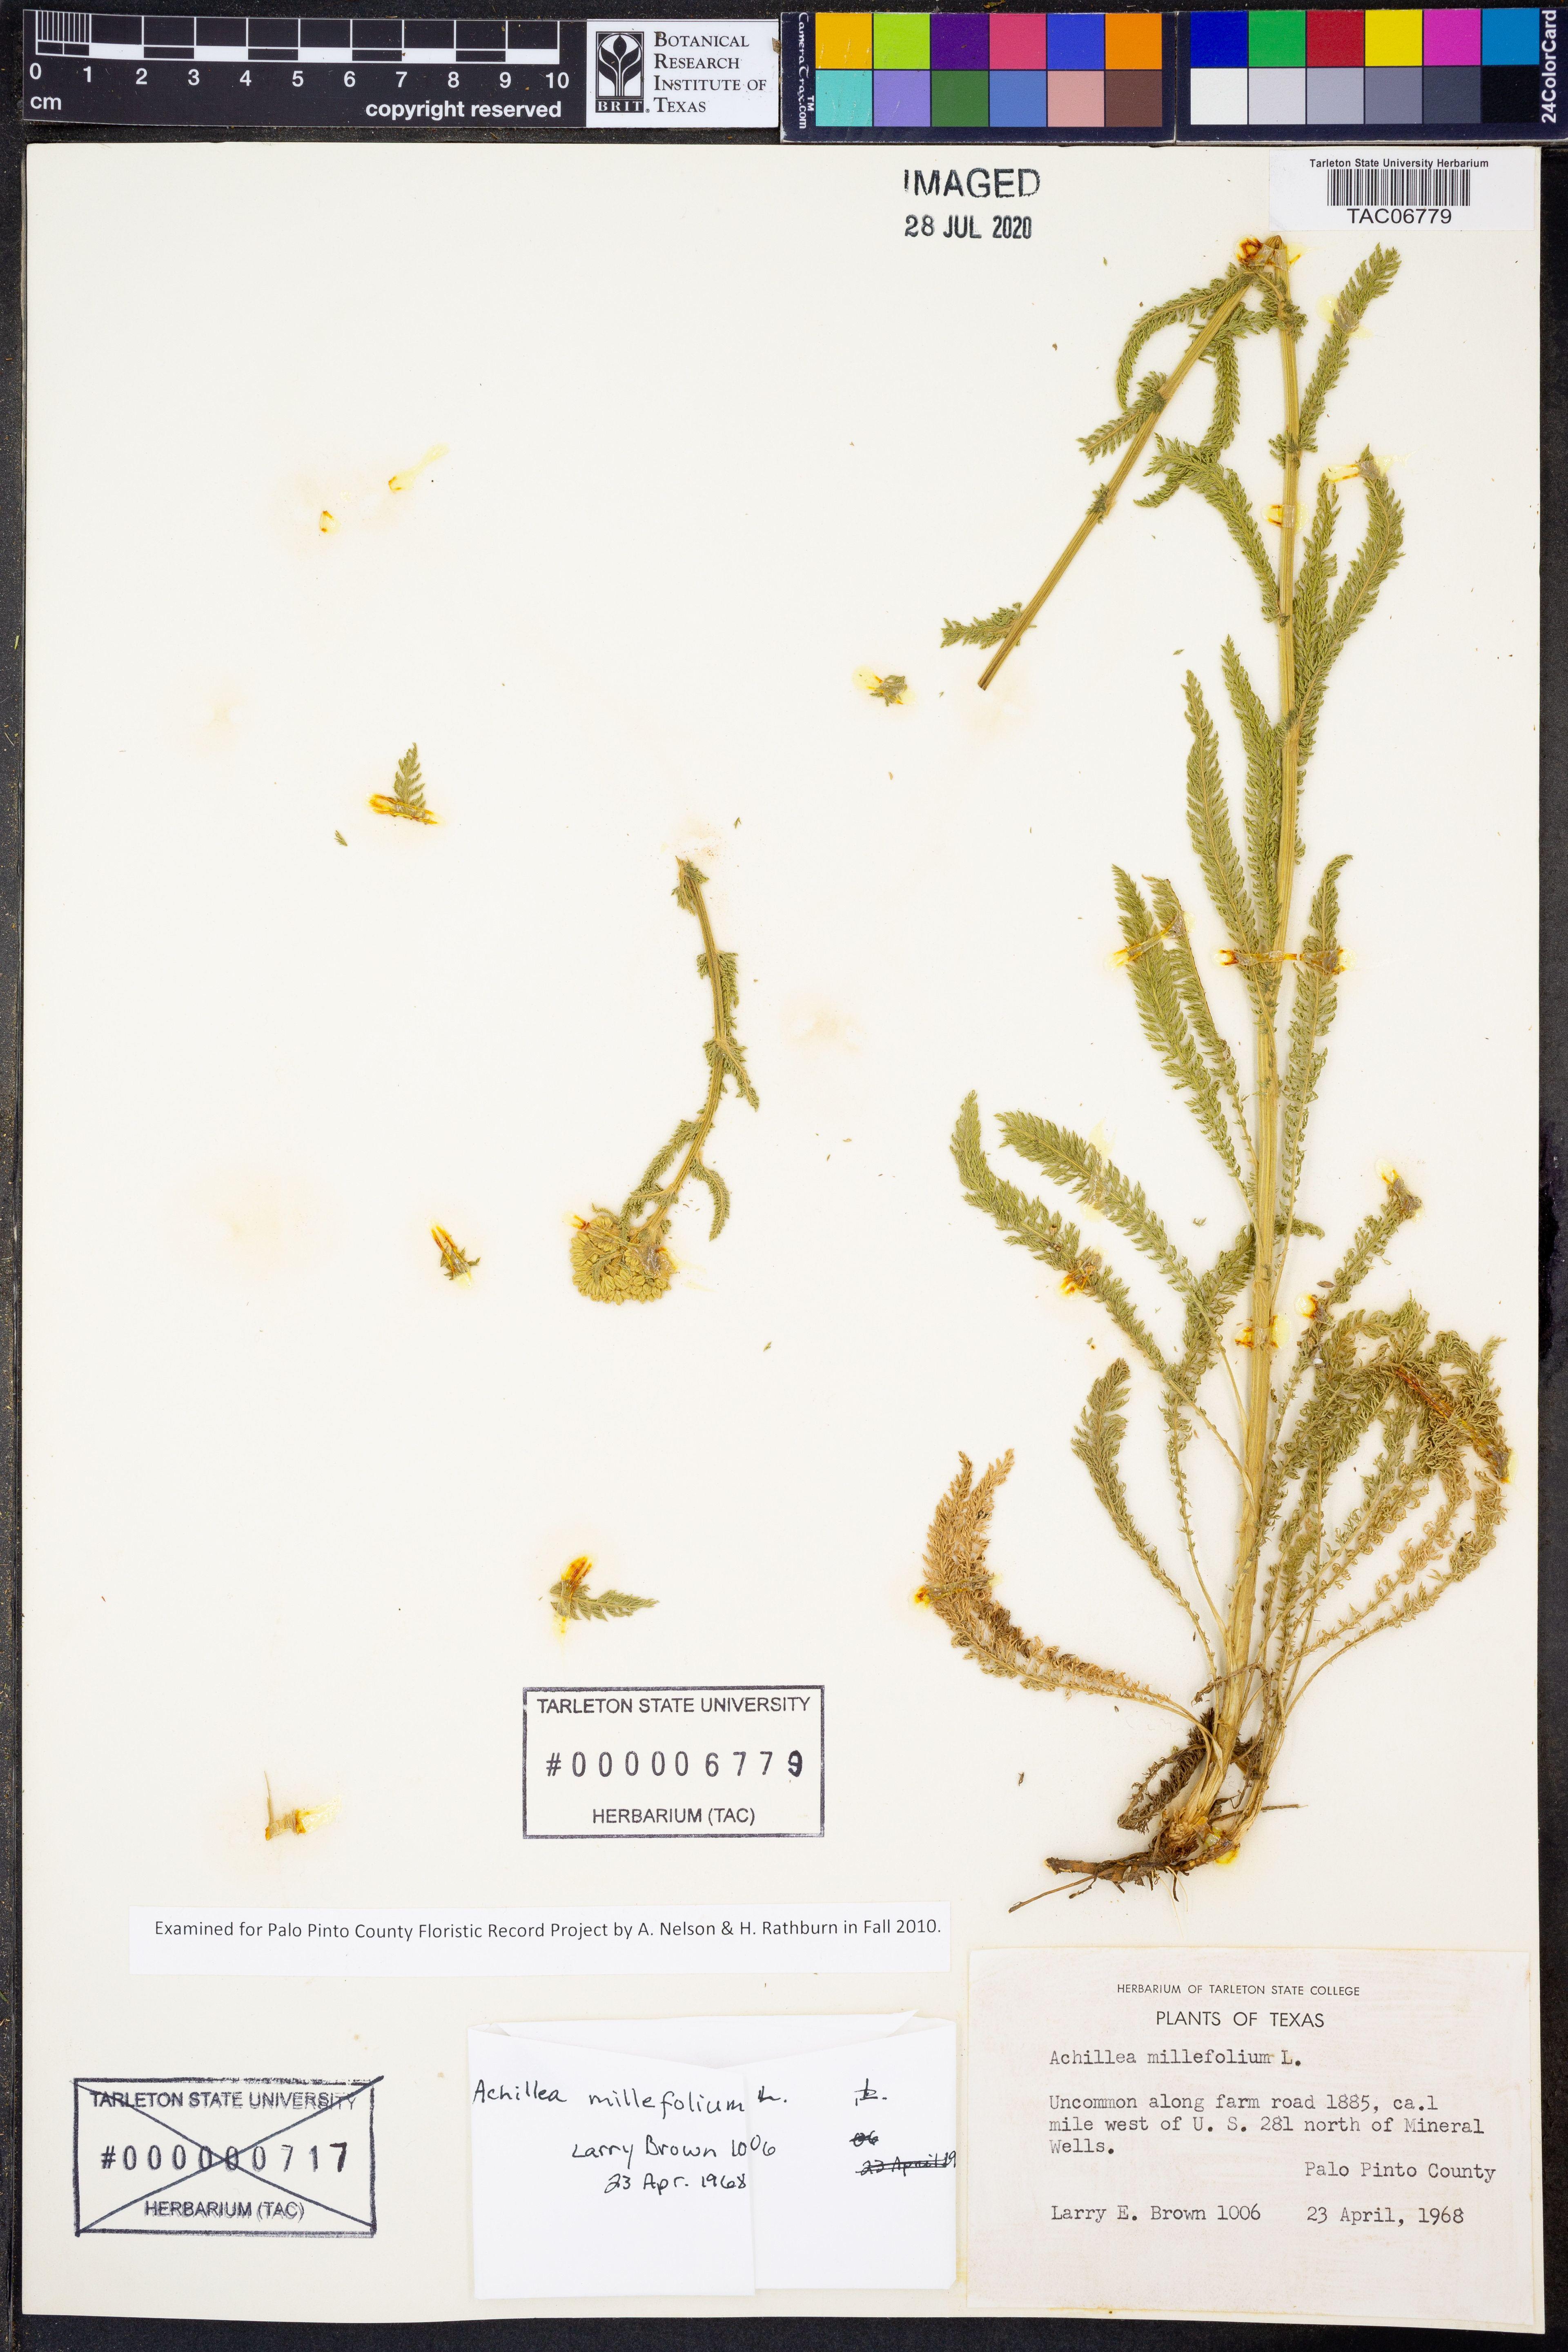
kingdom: Plantae
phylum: Tracheophyta
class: Magnoliopsida
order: Asterales
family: Asteraceae
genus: Achillea
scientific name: Achillea millefolium
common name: Yarrow
